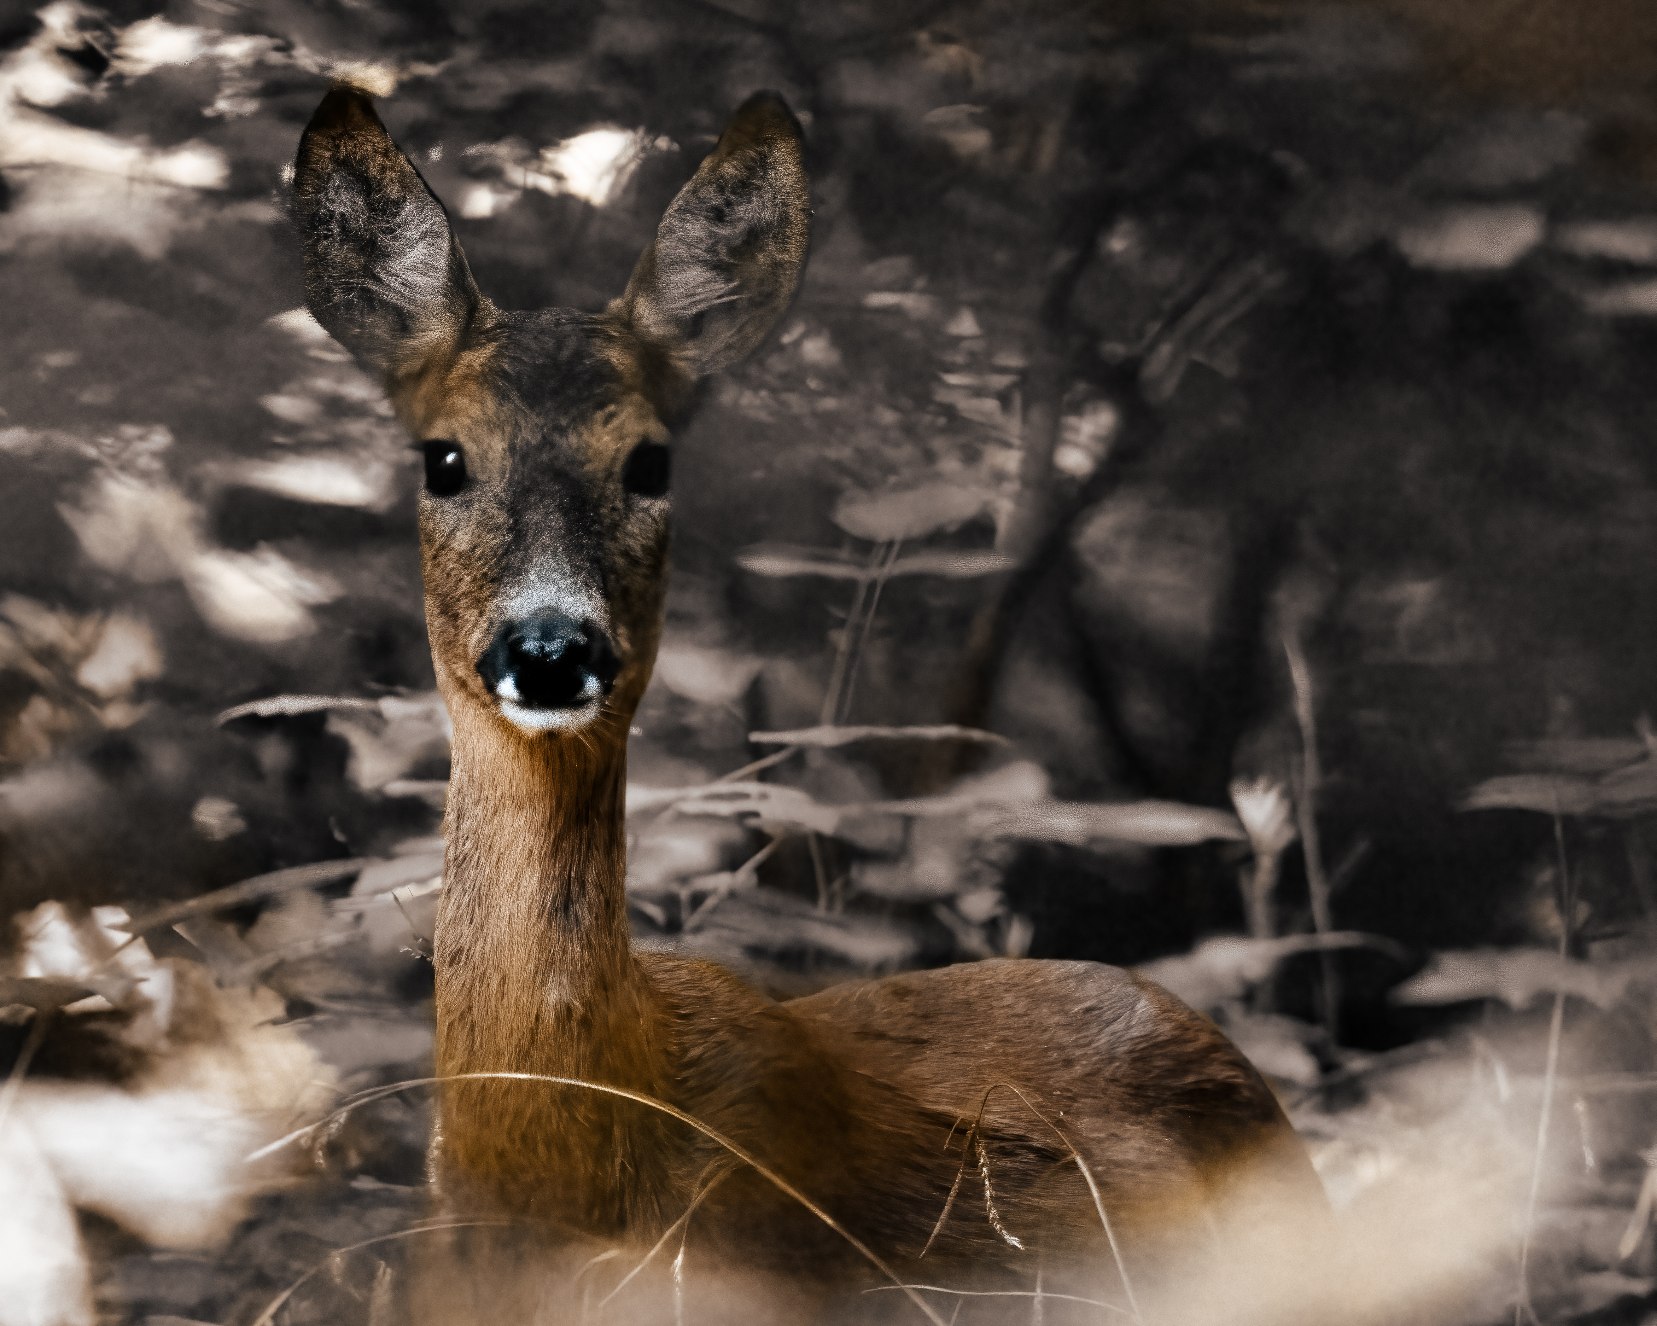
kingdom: Animalia
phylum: Chordata
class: Mammalia
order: Artiodactyla
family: Cervidae
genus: Capreolus
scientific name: Capreolus capreolus
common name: Rådyr
